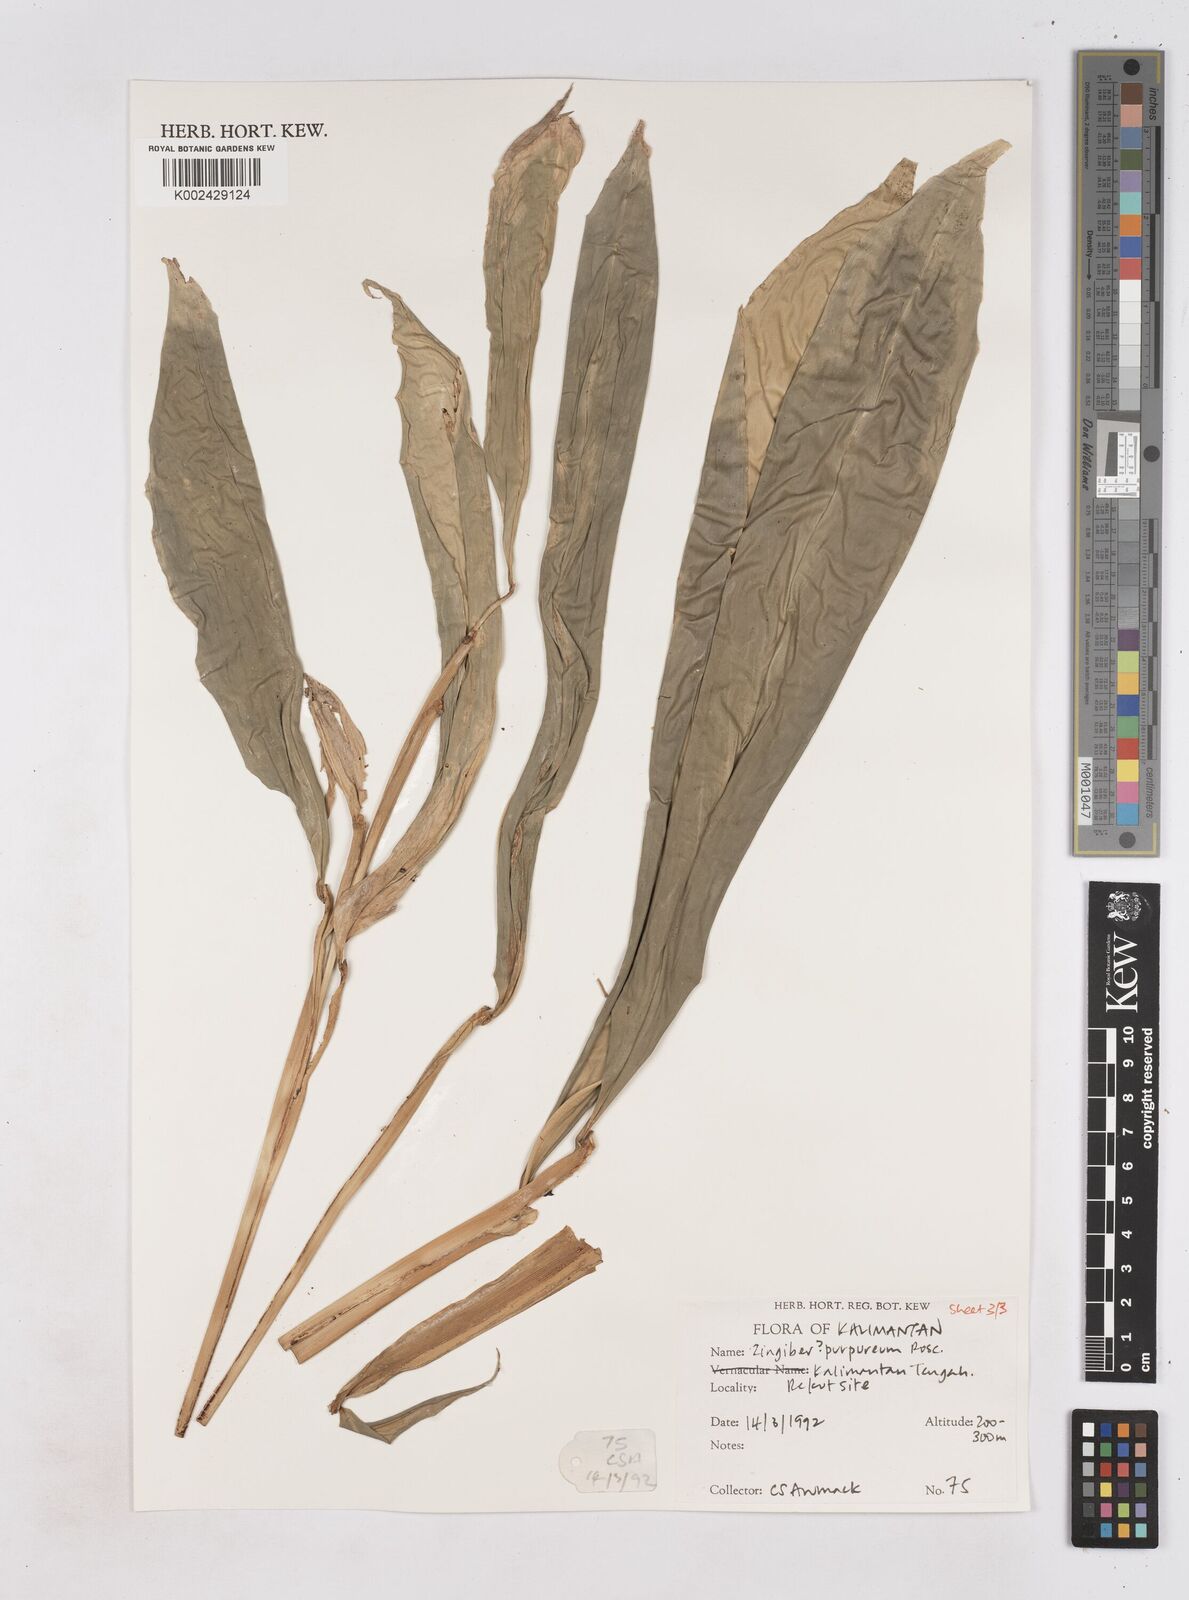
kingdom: Plantae
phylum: Tracheophyta
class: Liliopsida
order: Zingiberales
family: Zingiberaceae
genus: Zingiber
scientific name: Zingiber montanum
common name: Bengal ginger
